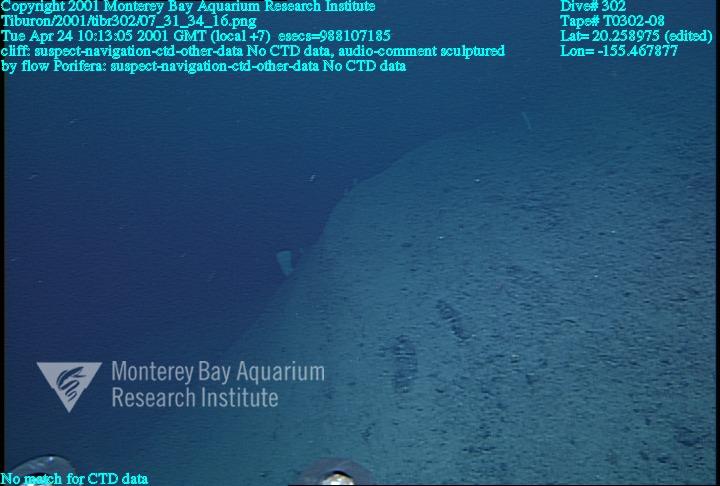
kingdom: Animalia
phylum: Porifera
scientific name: Porifera
